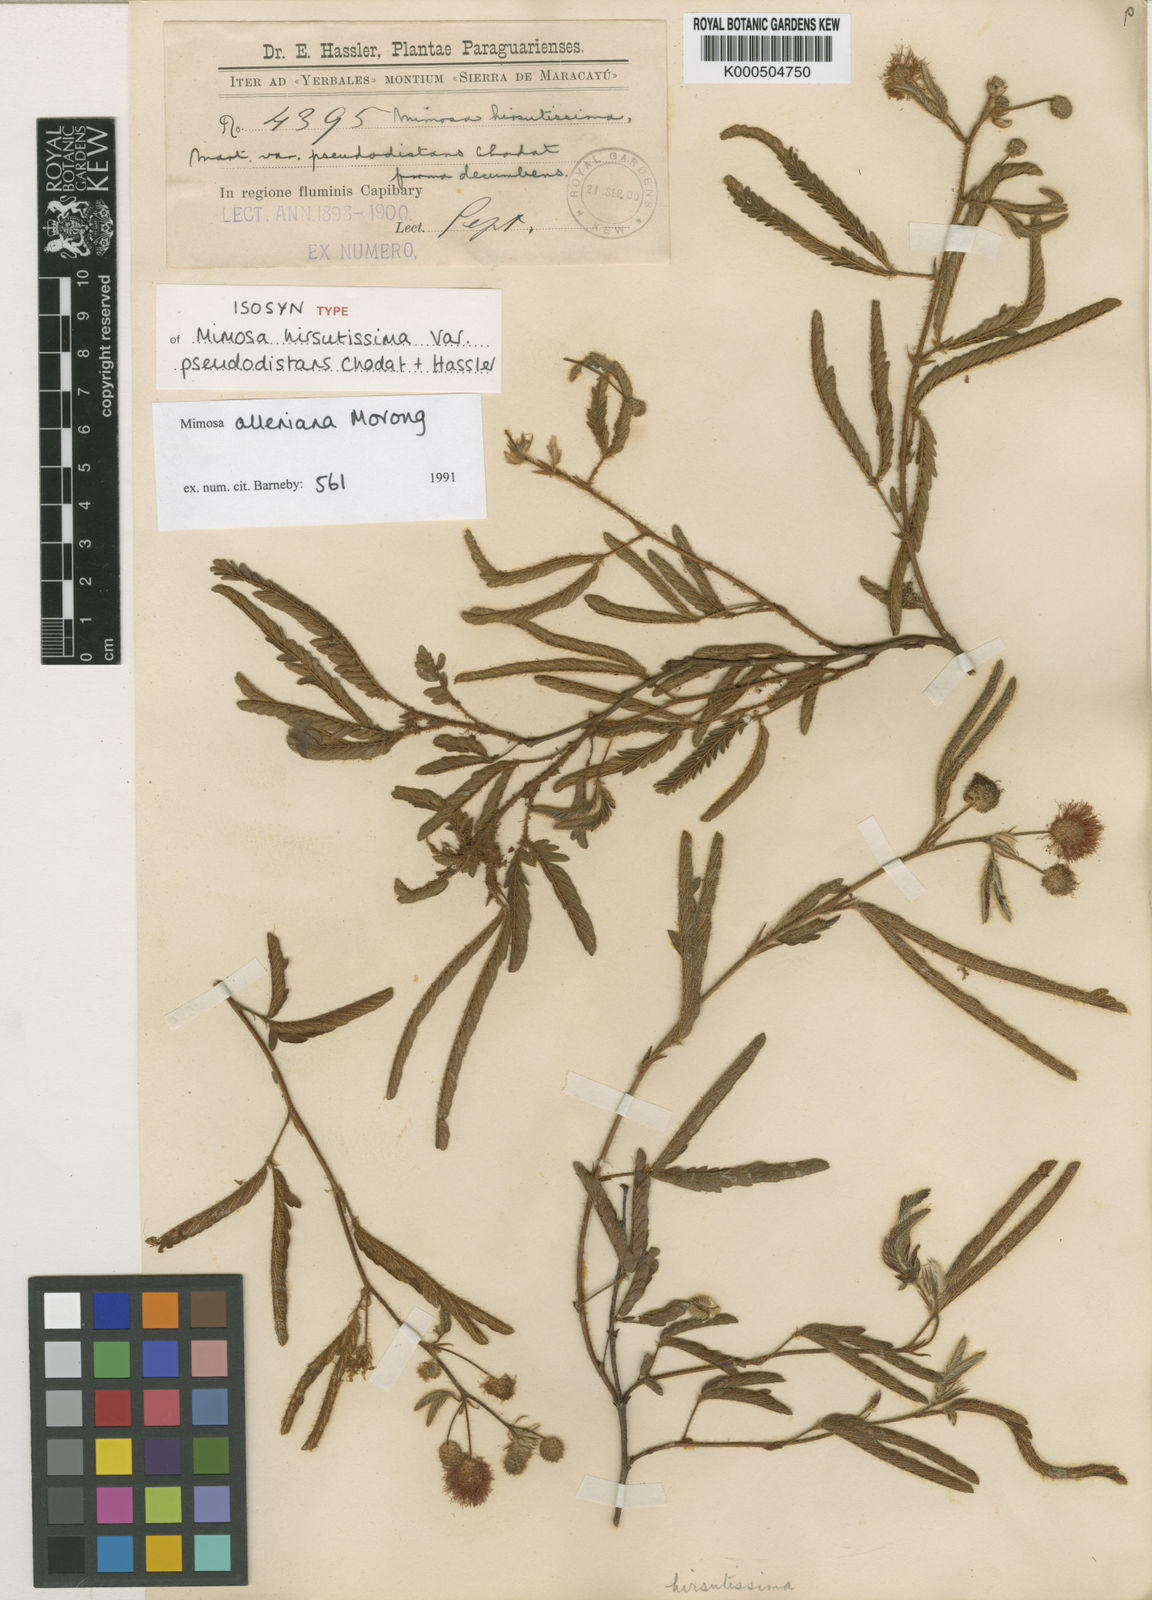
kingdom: Plantae
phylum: Tracheophyta
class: Magnoliopsida
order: Fabales
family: Fabaceae
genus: Mimosa
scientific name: Mimosa alleniana
